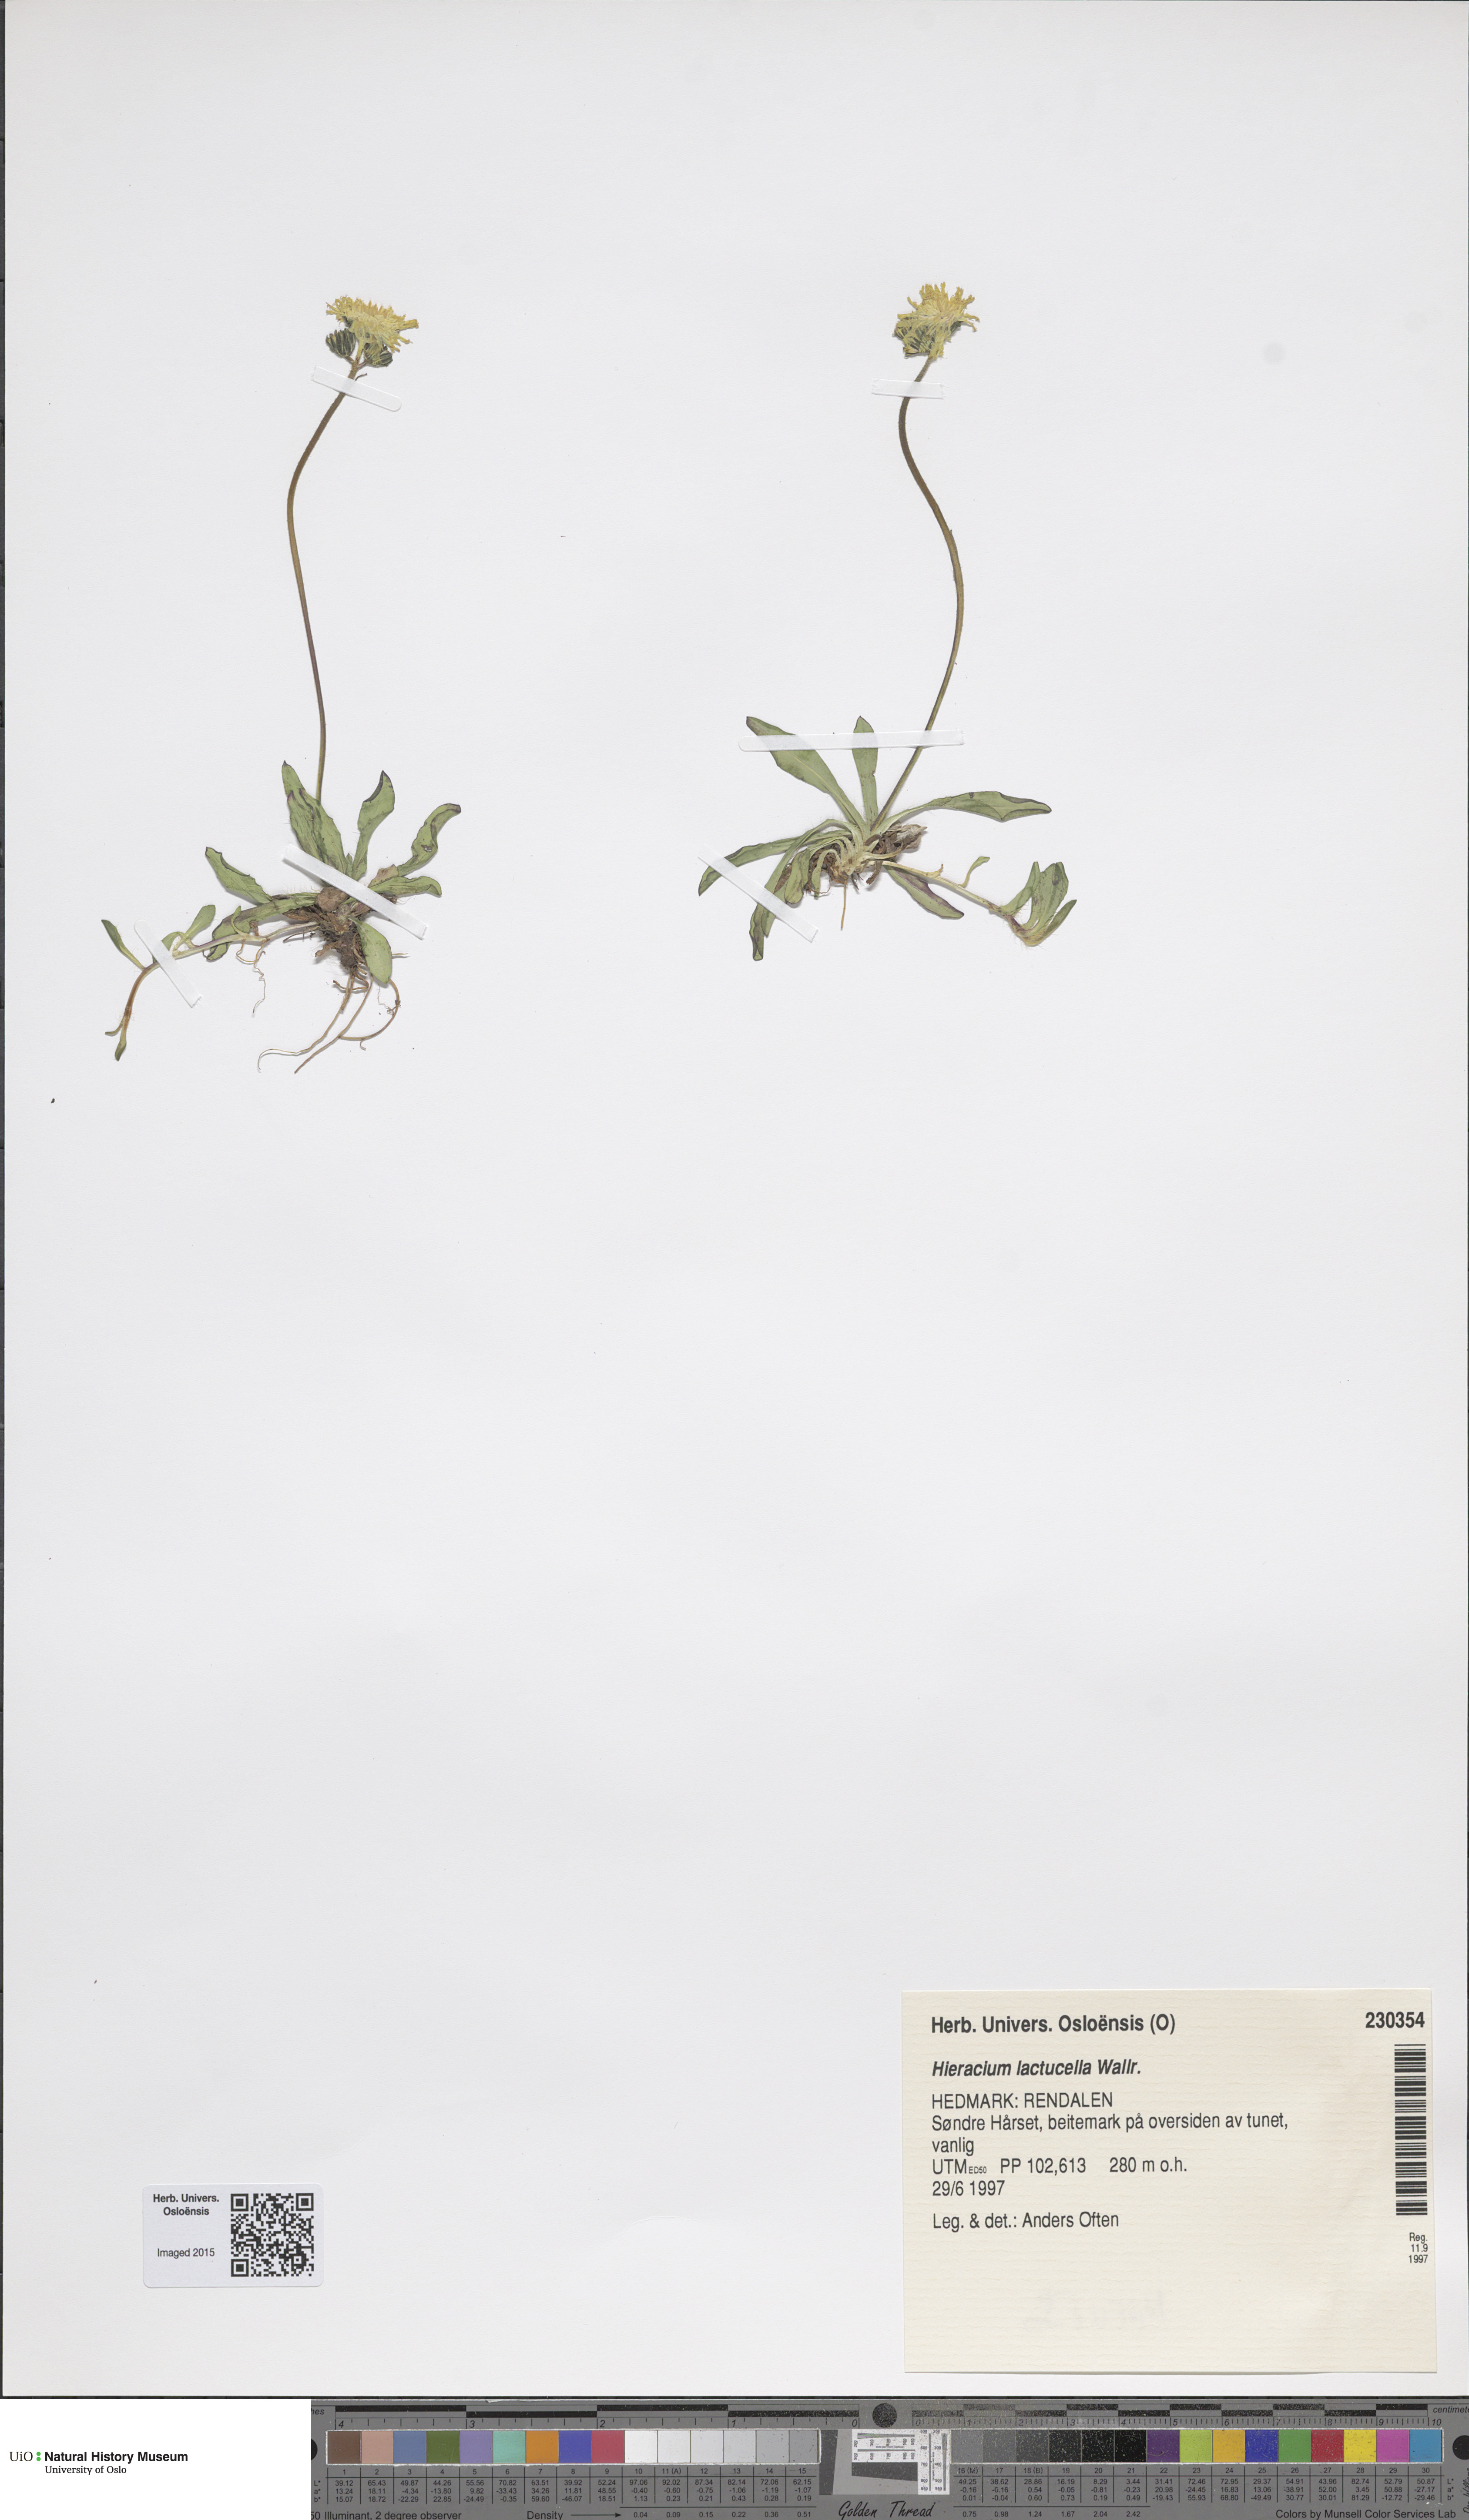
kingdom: Plantae
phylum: Tracheophyta
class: Magnoliopsida
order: Asterales
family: Asteraceae
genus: Pilosella
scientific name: Pilosella lactucella
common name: Glaucous fox-and-cubs
